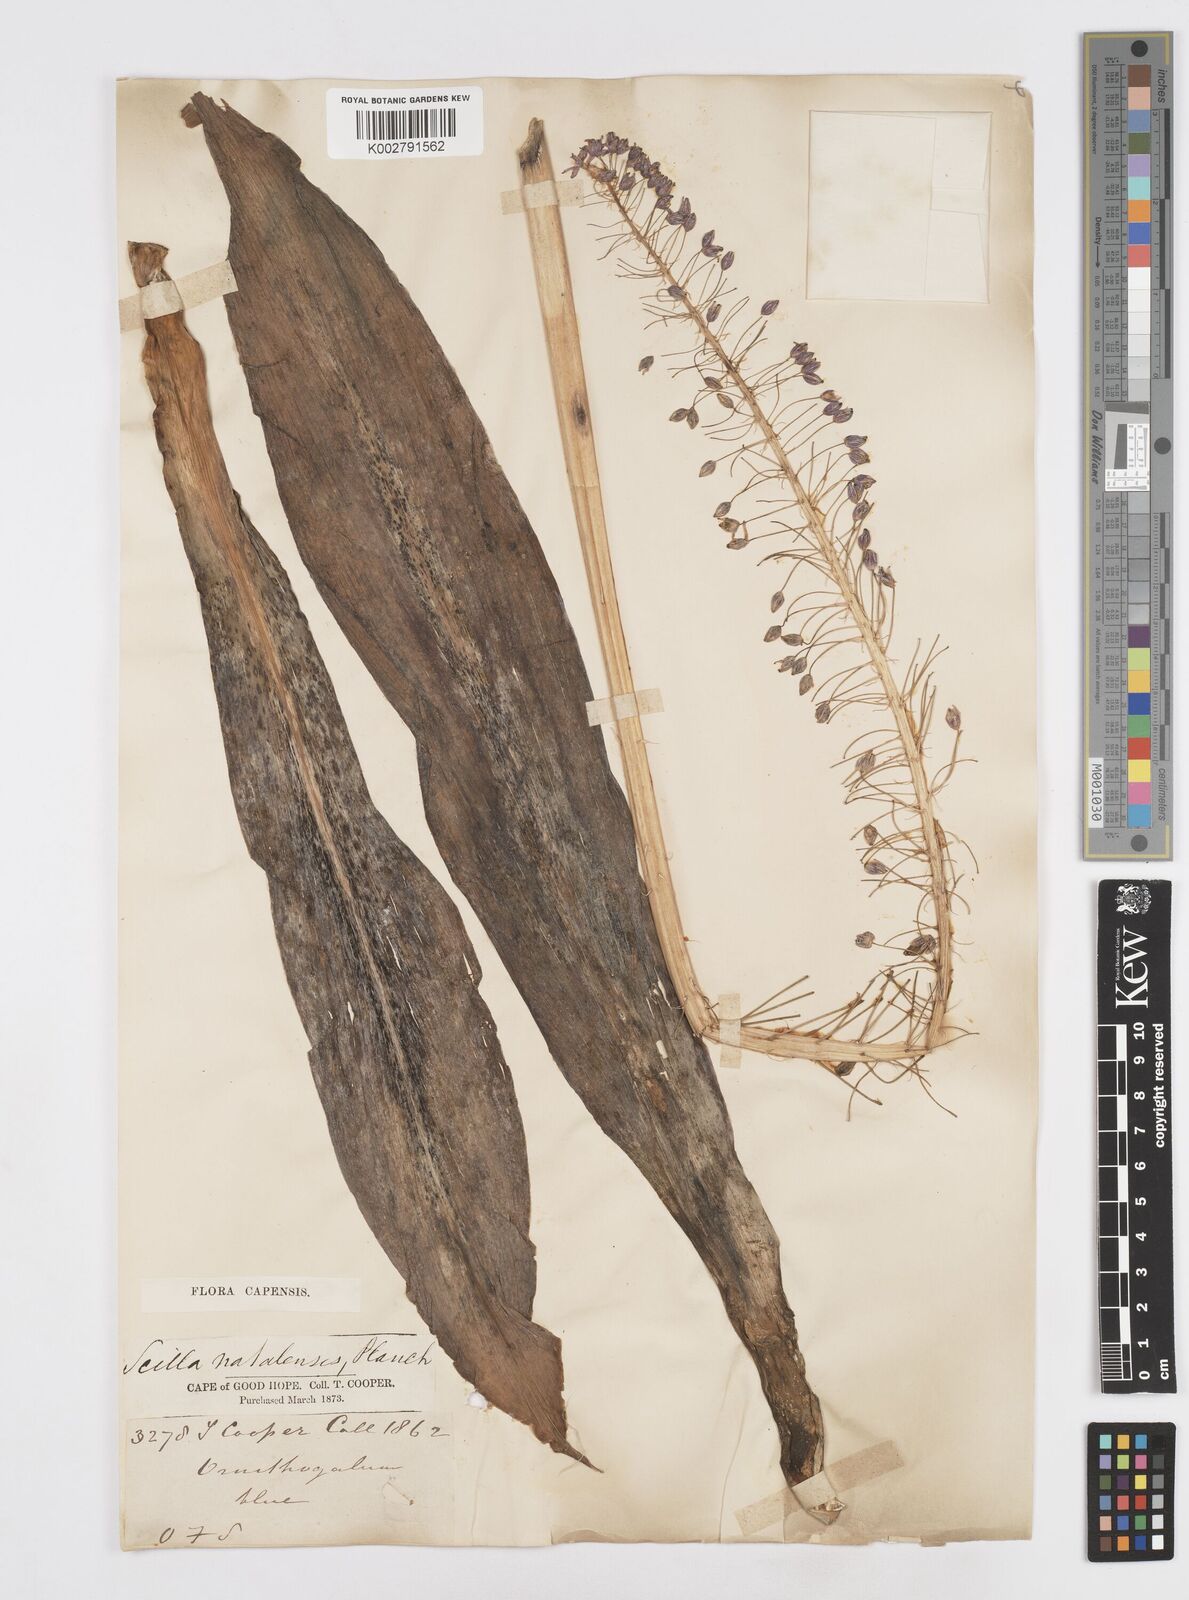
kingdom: Plantae
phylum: Tracheophyta
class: Liliopsida
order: Asparagales
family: Asparagaceae
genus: Merwilla
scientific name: Merwilla plumbea
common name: Blue-squill
